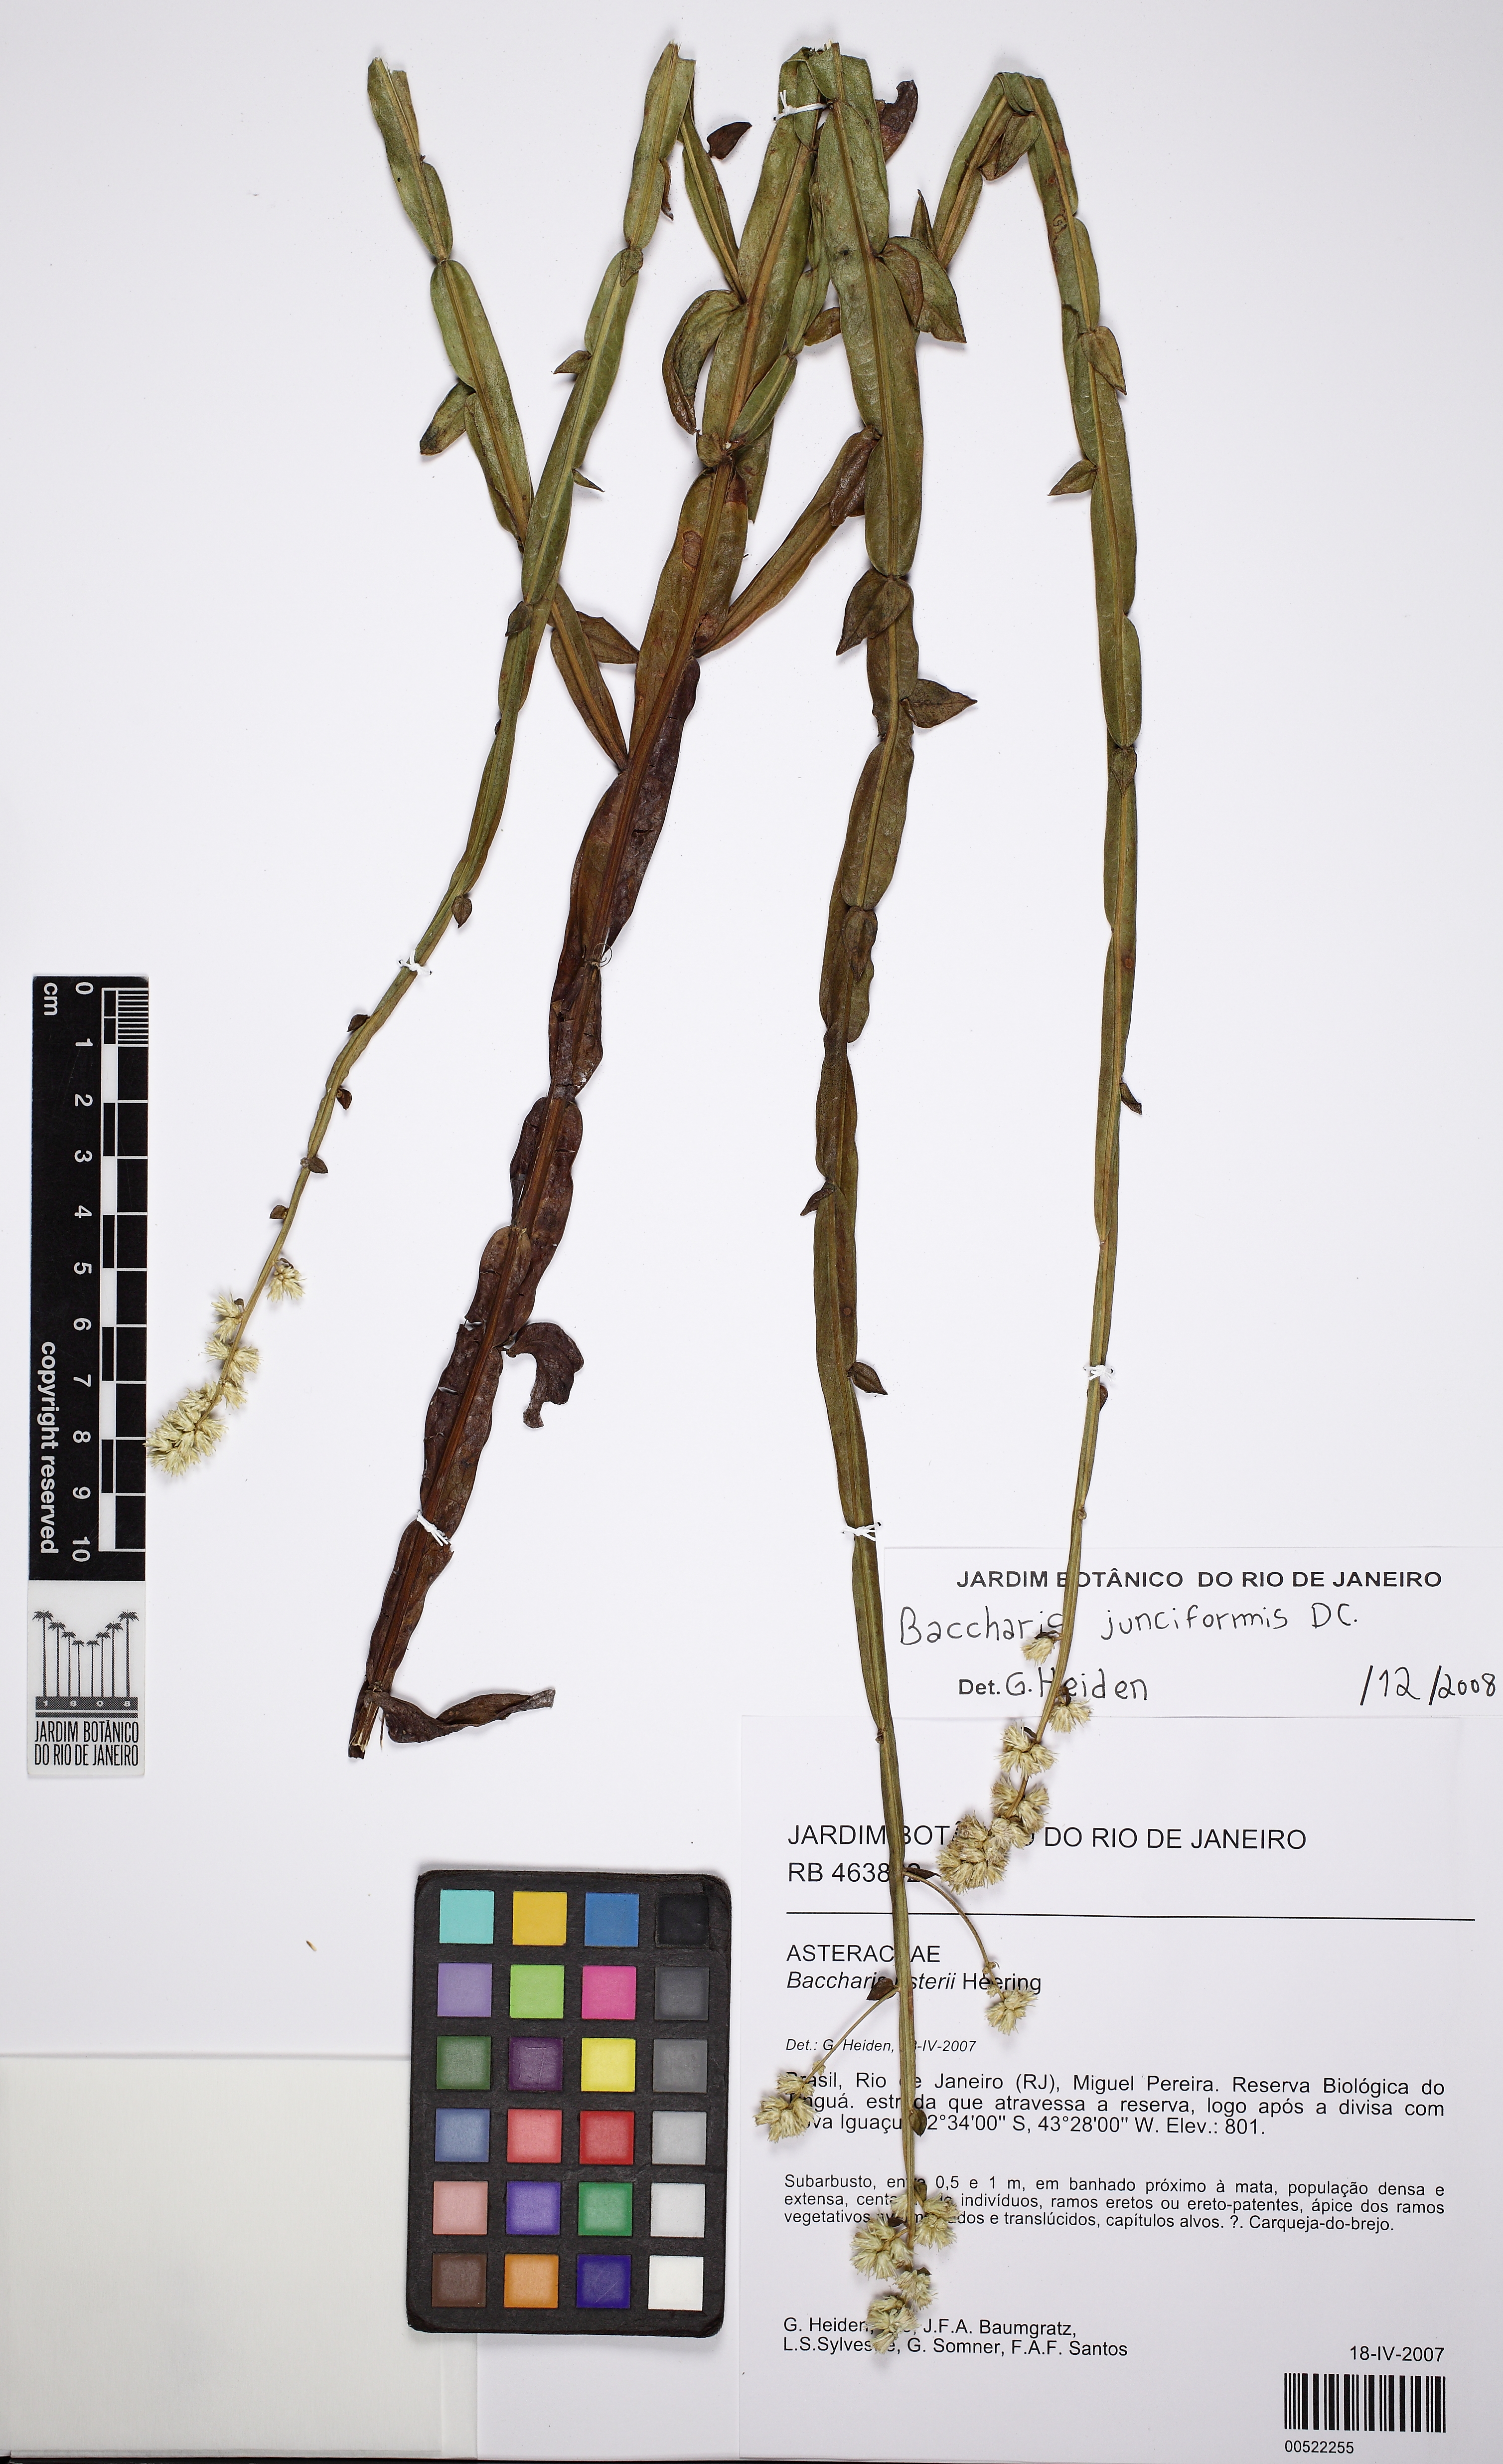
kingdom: Plantae
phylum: Tracheophyta
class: Magnoliopsida
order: Asterales
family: Asteraceae
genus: Baccharis
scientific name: Baccharis usterii
